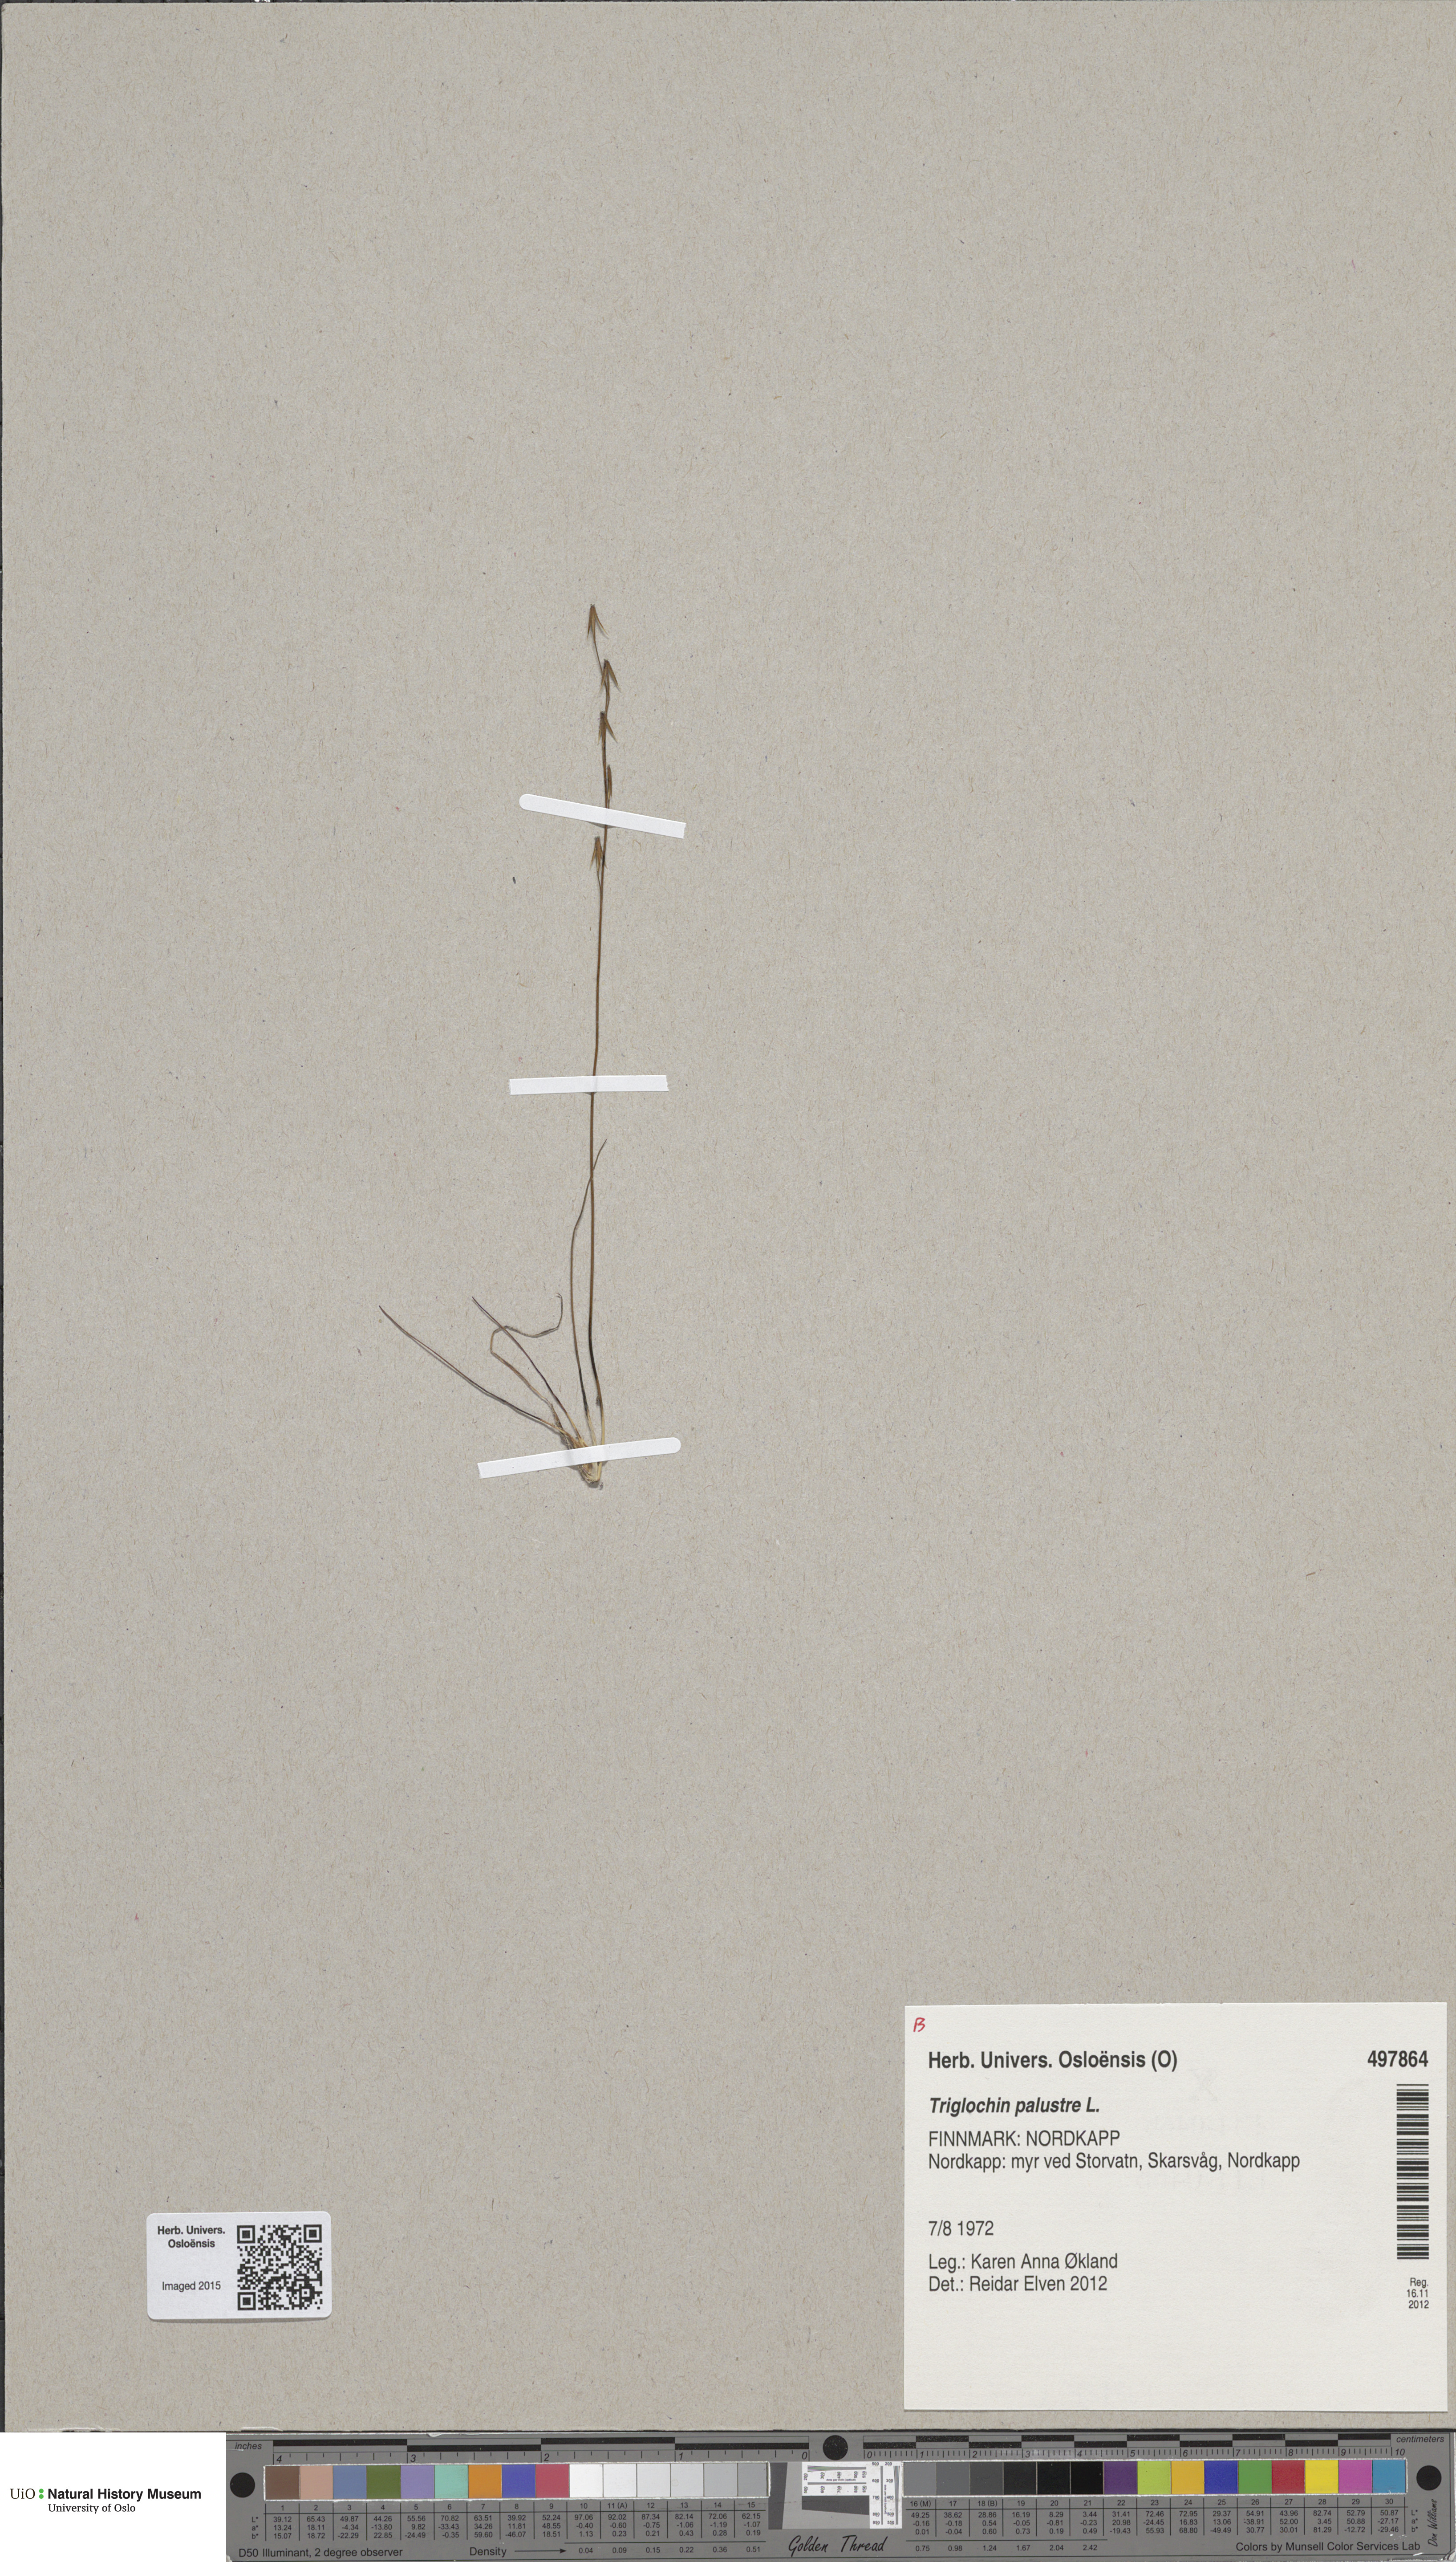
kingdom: Plantae
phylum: Tracheophyta
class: Liliopsida
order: Alismatales
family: Juncaginaceae
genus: Triglochin
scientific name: Triglochin palustris
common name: Marsh arrowgrass
